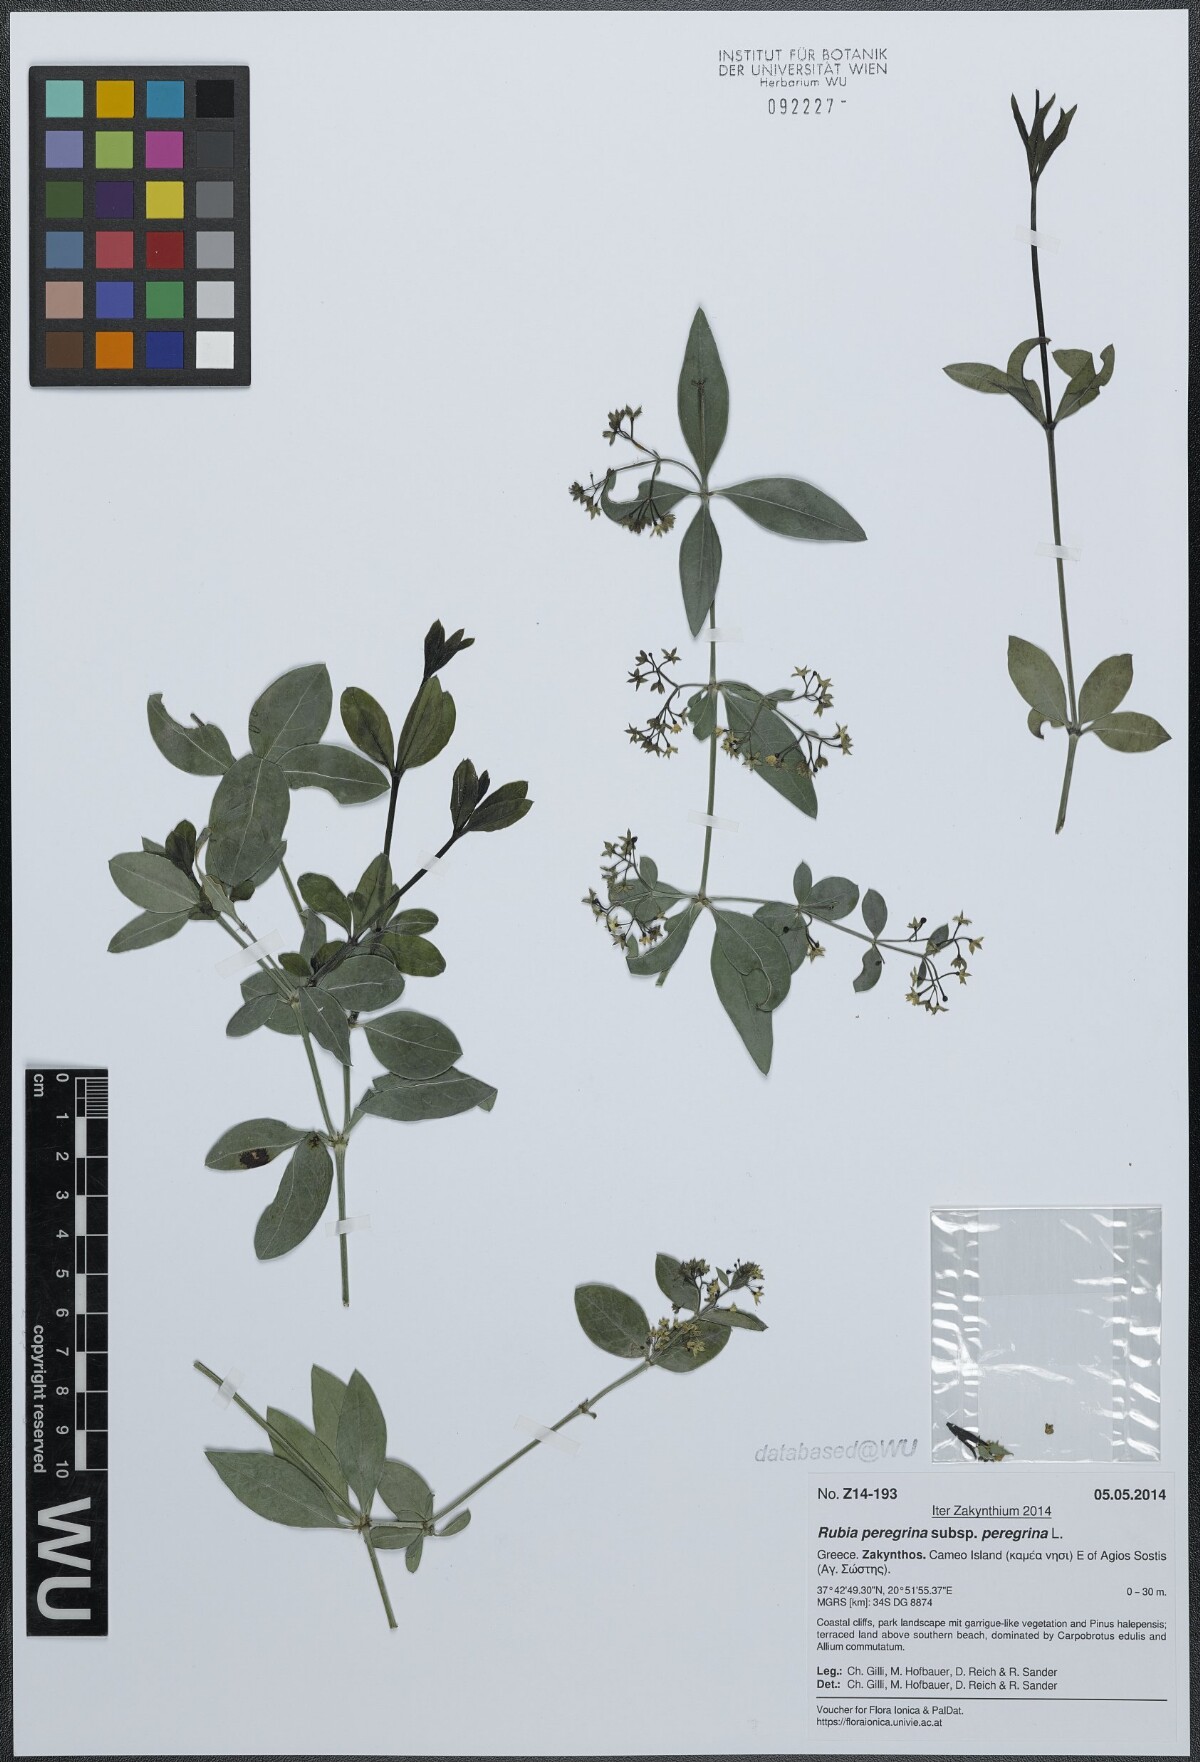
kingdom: Plantae
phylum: Tracheophyta
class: Magnoliopsida
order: Gentianales
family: Rubiaceae
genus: Rubia
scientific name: Rubia peregrina
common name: Wild madder
